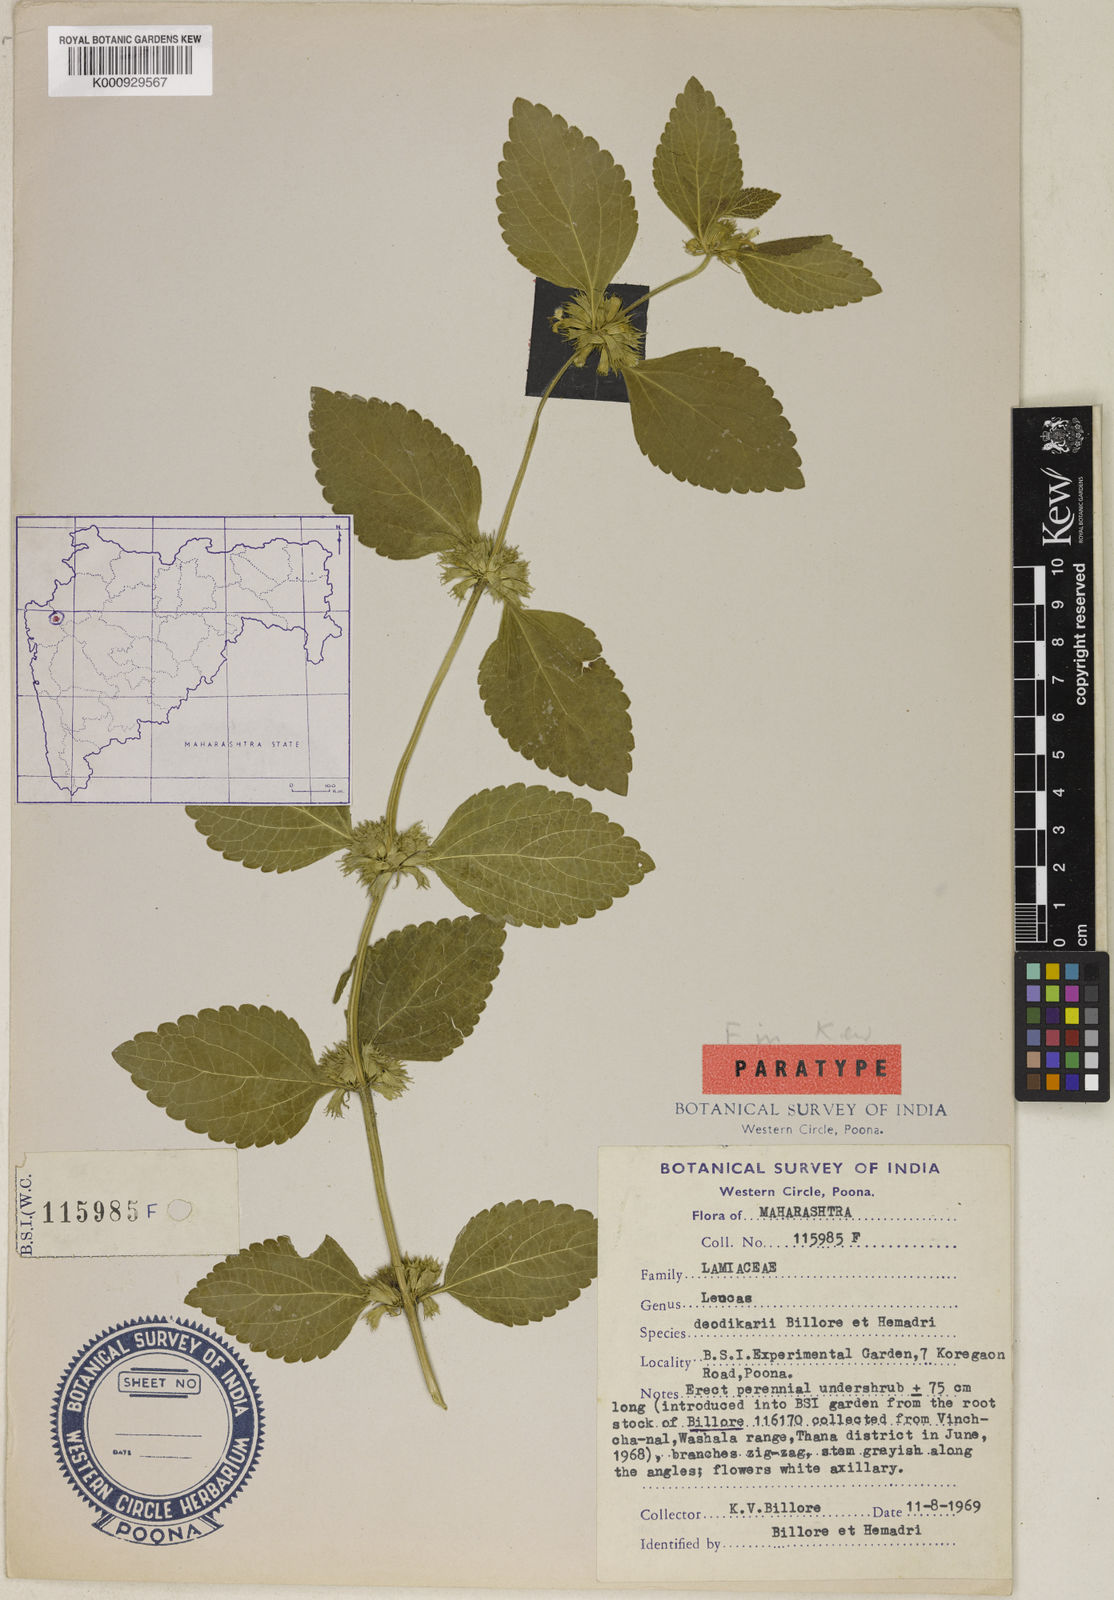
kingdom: Plantae
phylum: Tracheophyta
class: Magnoliopsida
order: Lamiales
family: Lamiaceae
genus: Leucas
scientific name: Leucas deodikarii
